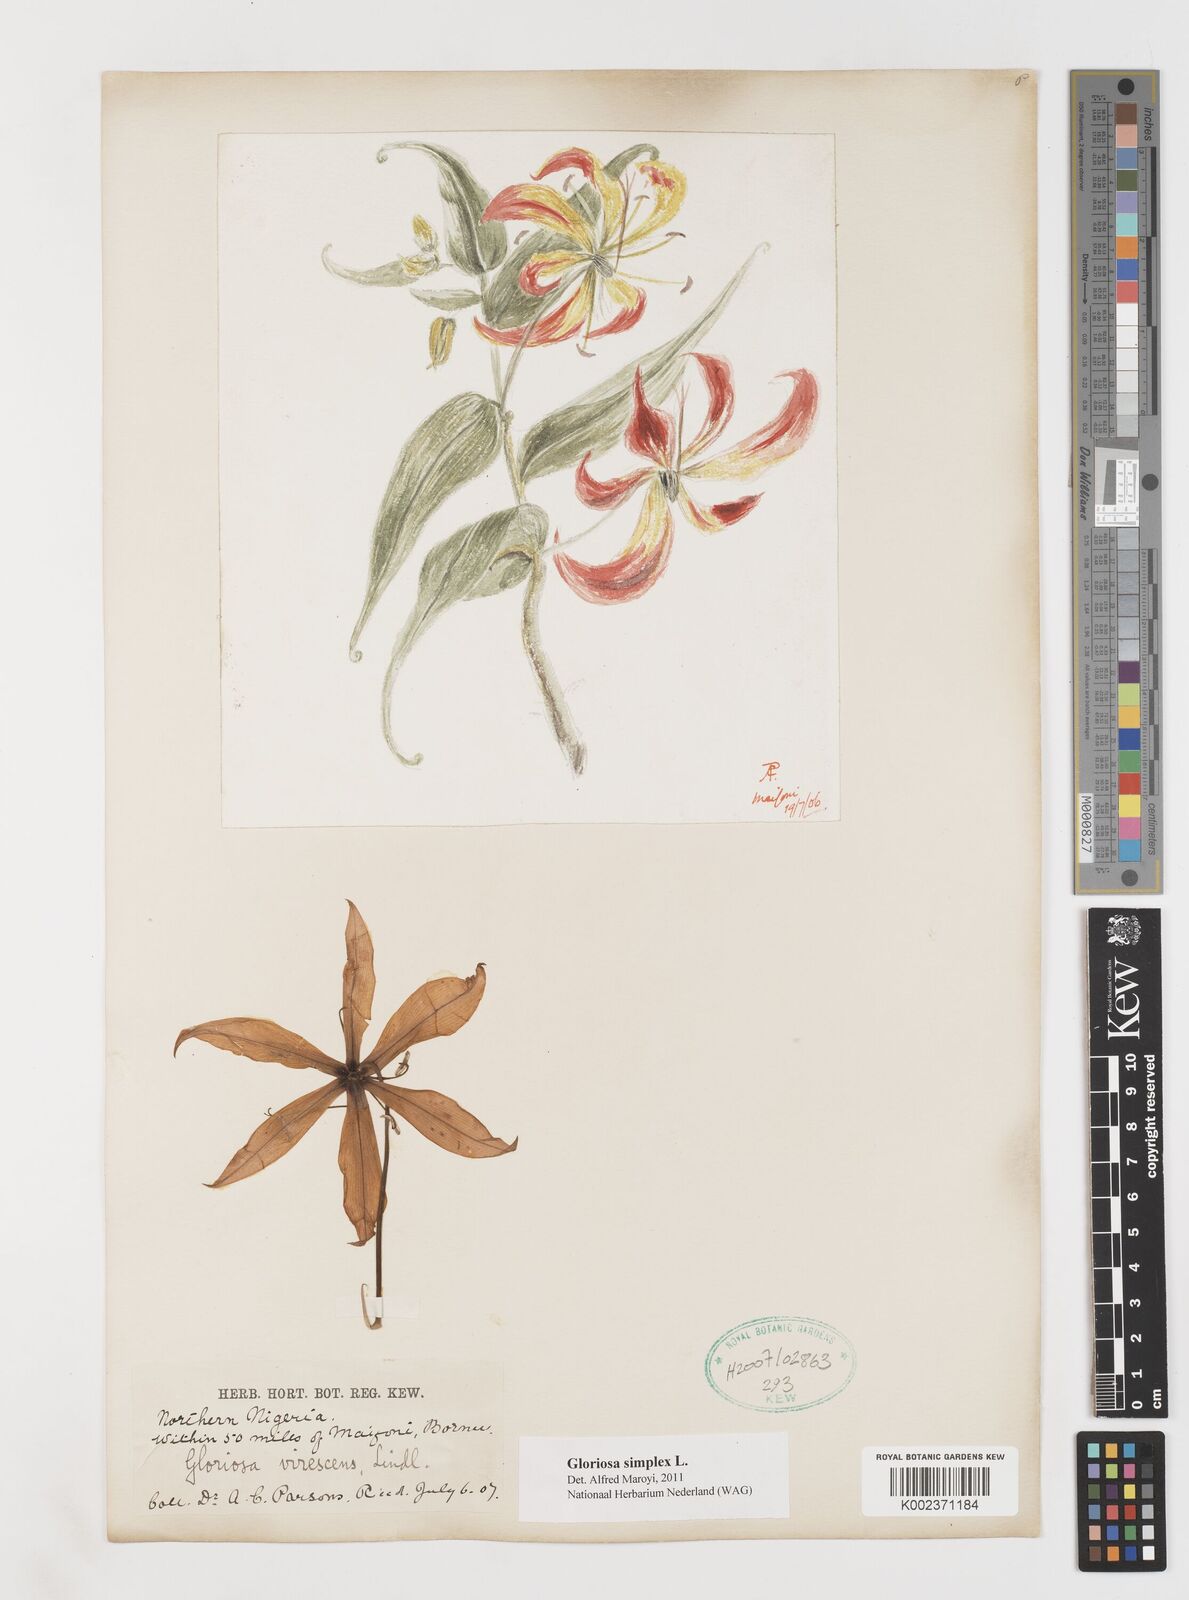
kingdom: Plantae
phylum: Tracheophyta
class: Liliopsida
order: Liliales
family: Colchicaceae
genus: Gloriosa
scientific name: Gloriosa simplex
